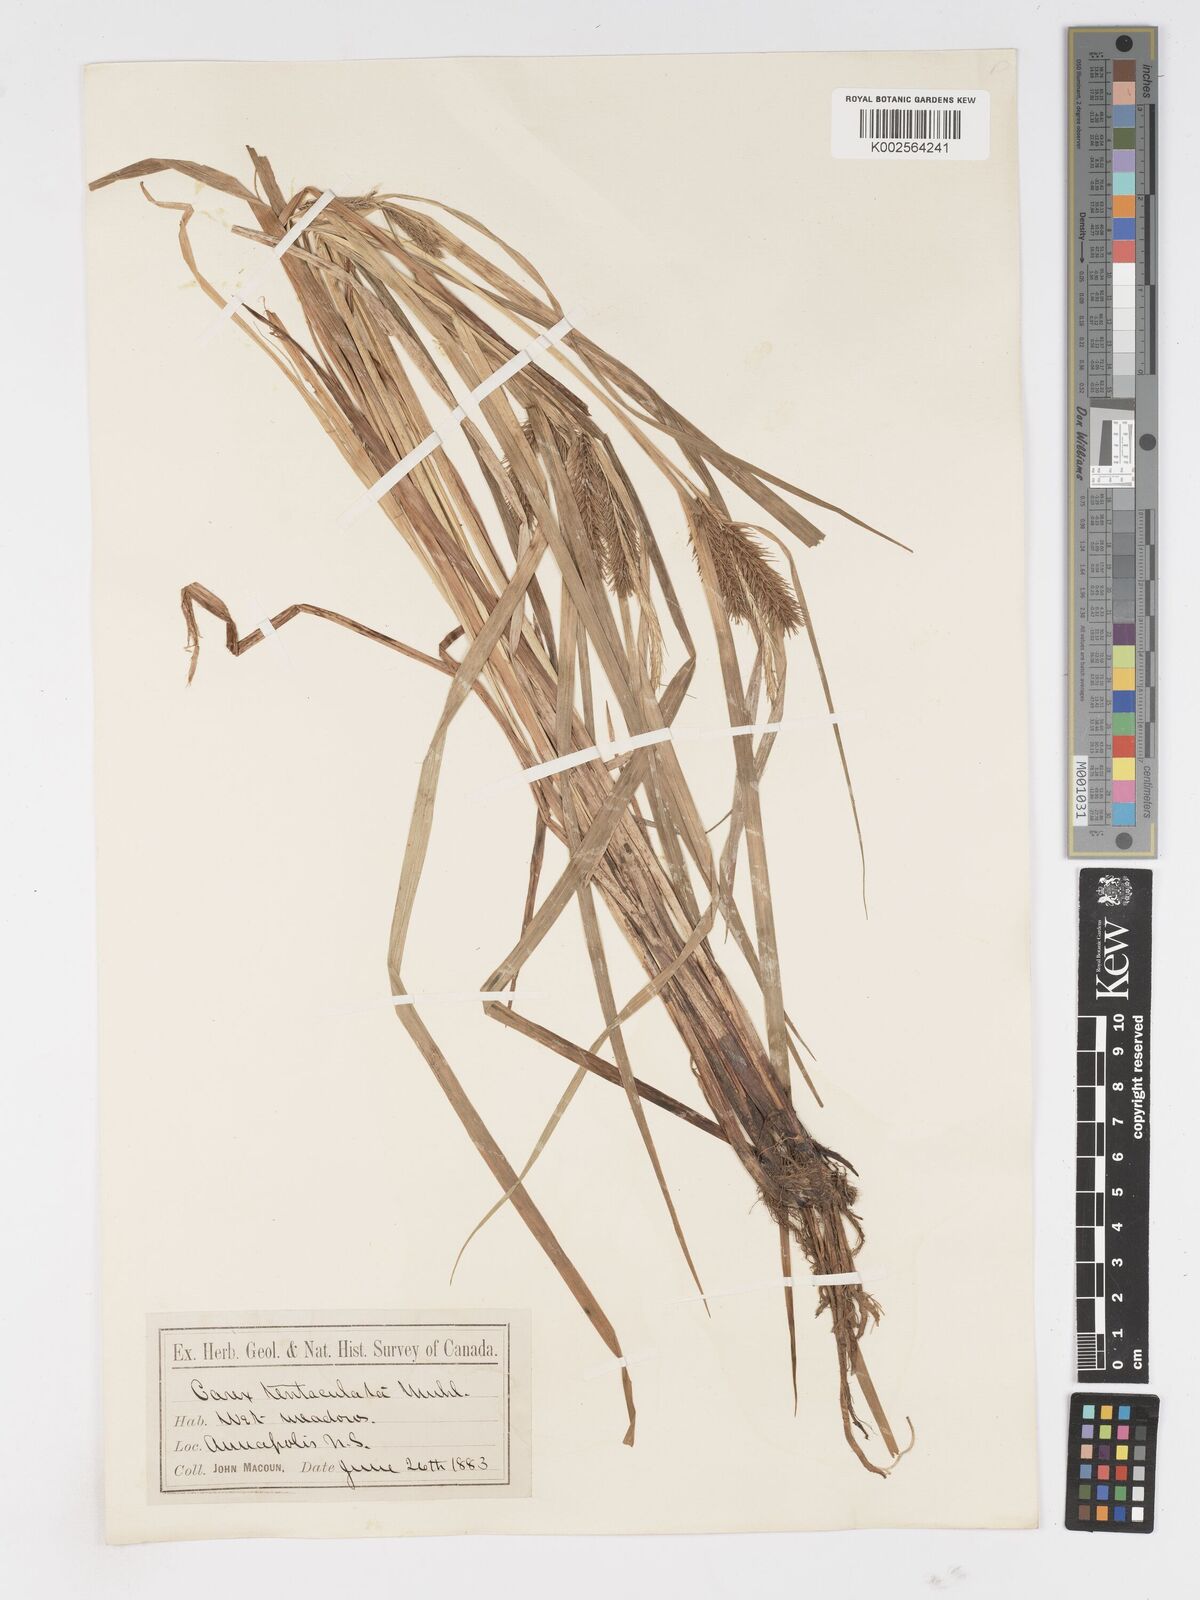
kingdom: Plantae
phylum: Tracheophyta
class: Liliopsida
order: Poales
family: Cyperaceae
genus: Carex
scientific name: Carex lurida
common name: Sallow sedge
